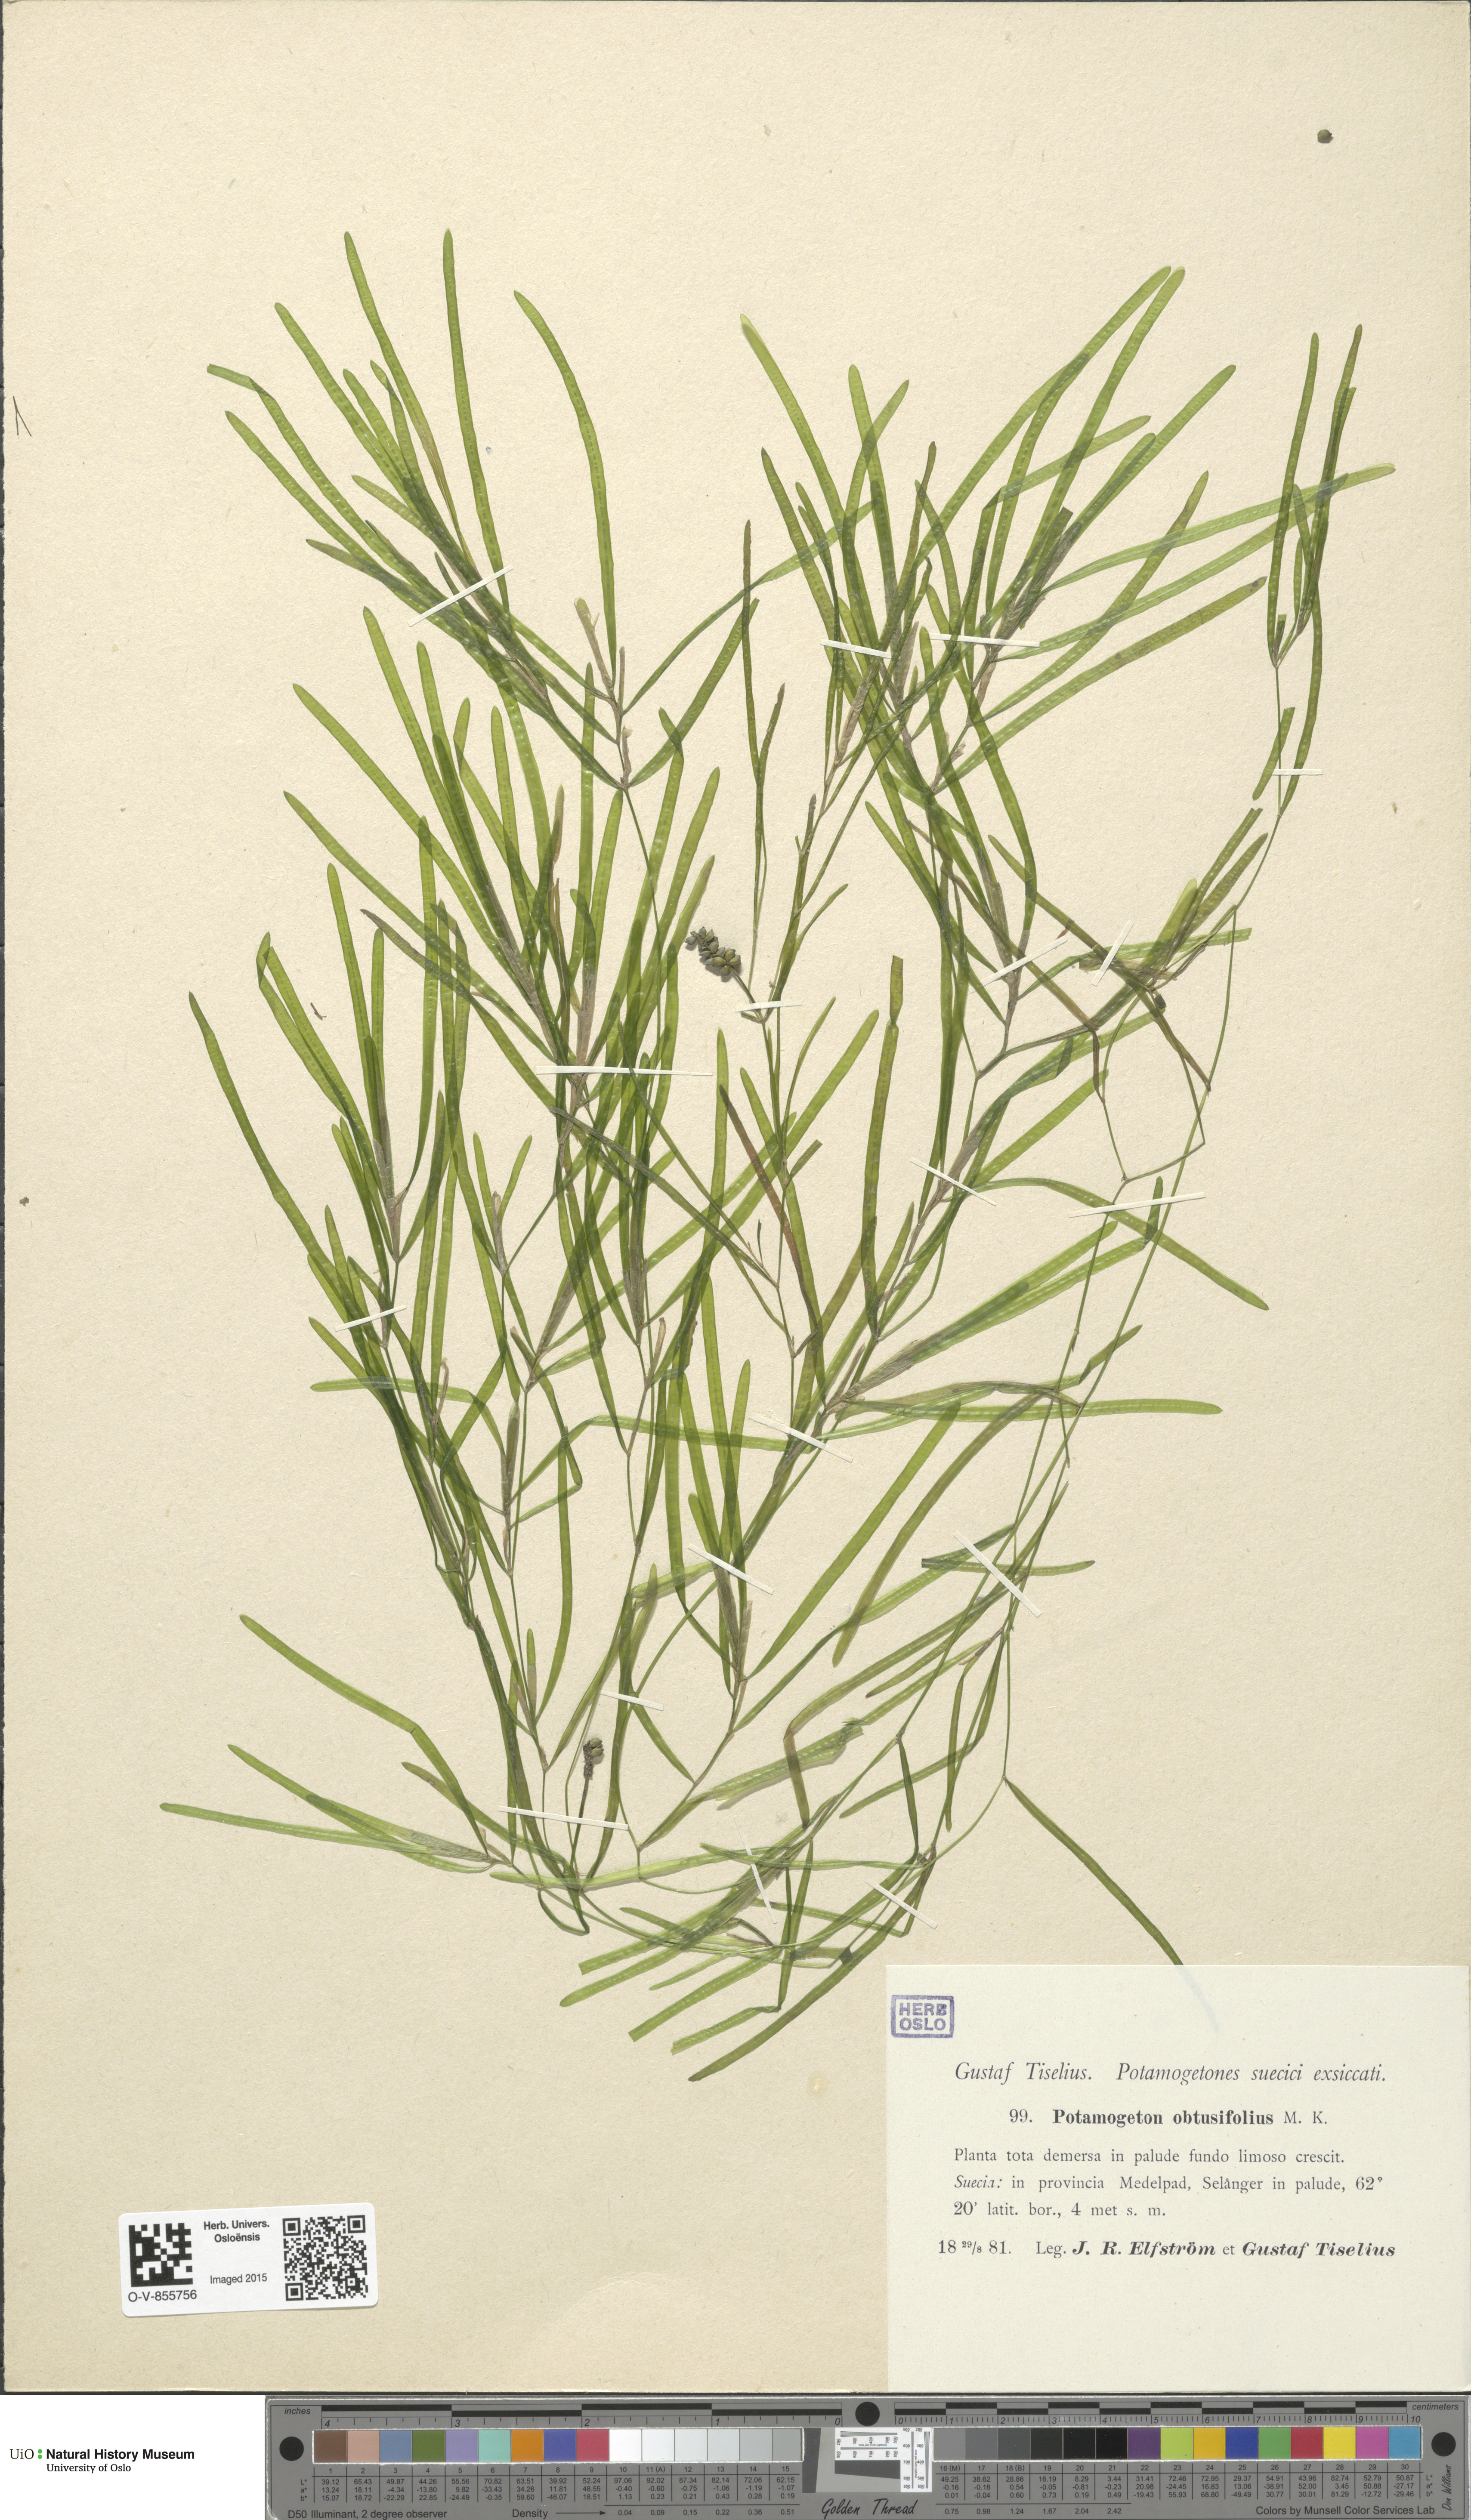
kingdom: Plantae
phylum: Tracheophyta
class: Liliopsida
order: Alismatales
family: Potamogetonaceae
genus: Potamogeton
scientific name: Potamogeton obtusifolius
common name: Blunt-leaved pondweed
